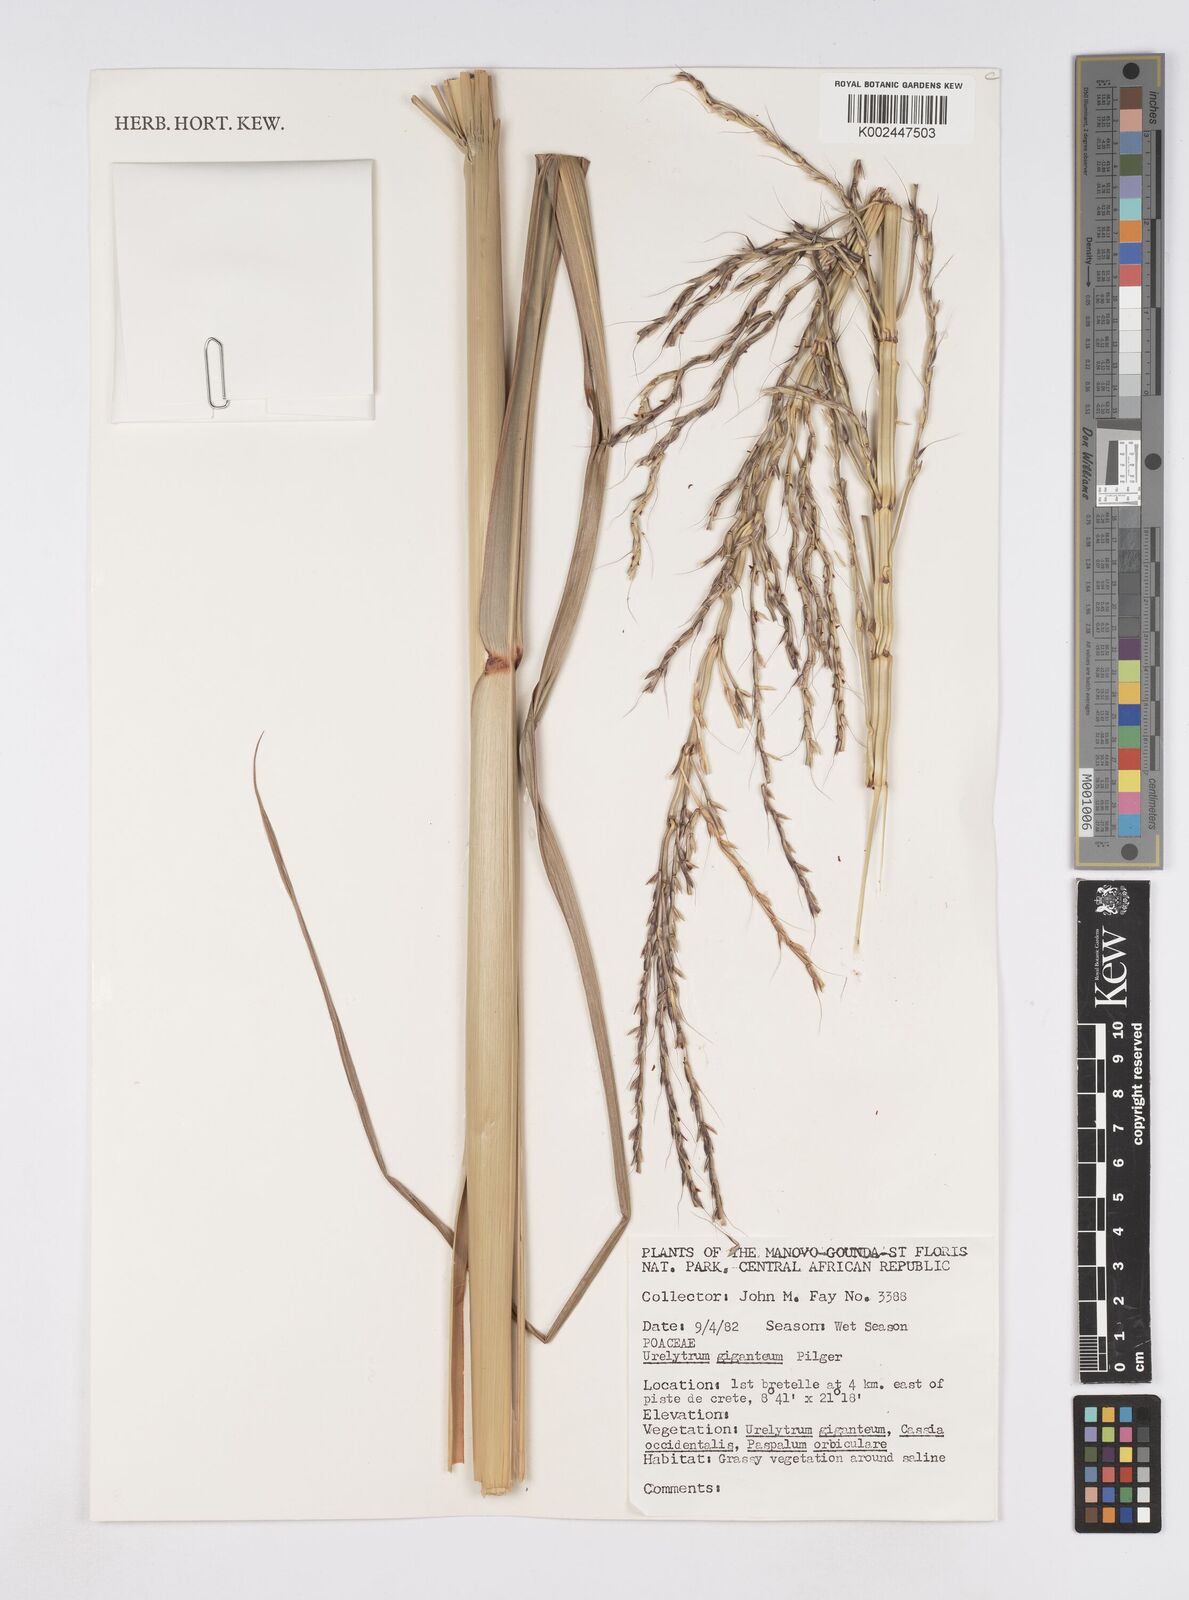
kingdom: Plantae
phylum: Tracheophyta
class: Liliopsida
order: Poales
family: Poaceae
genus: Urelytrum
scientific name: Urelytrum giganteum
